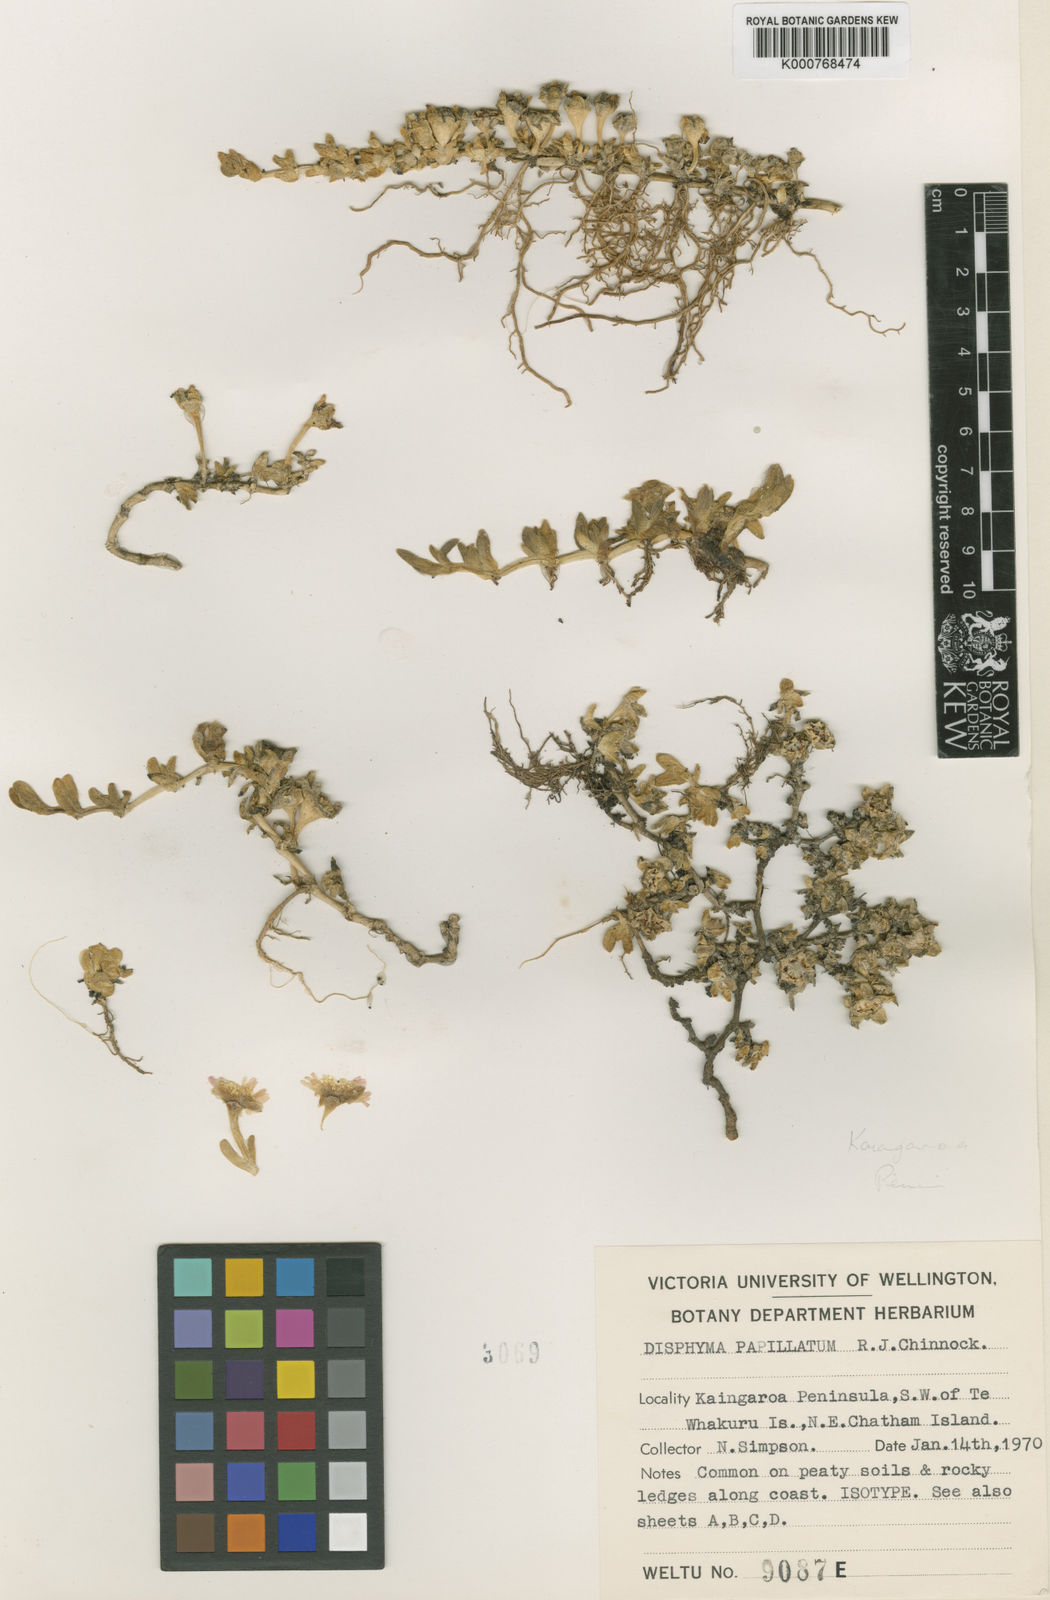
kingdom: Plantae
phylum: Tracheophyta
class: Magnoliopsida
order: Caryophyllales
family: Aizoaceae
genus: Disphyma
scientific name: Disphyma papillatum
